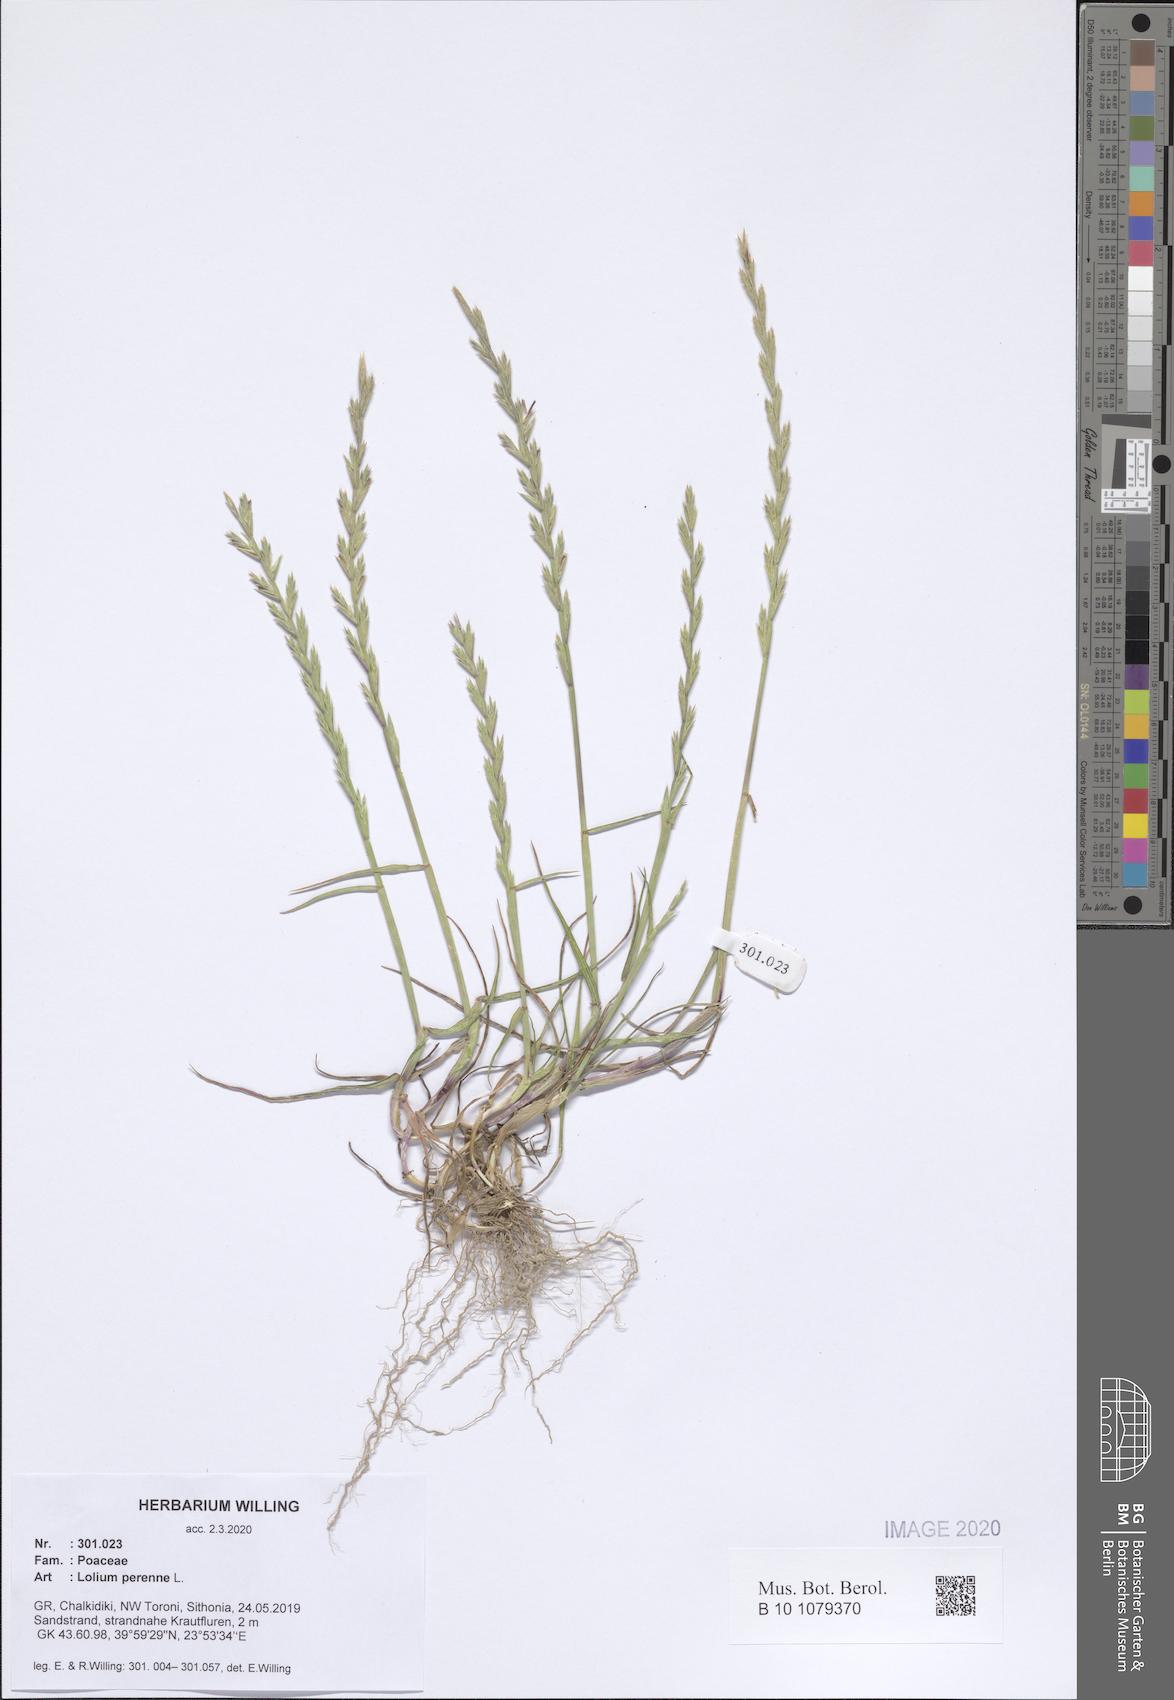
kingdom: Plantae
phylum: Tracheophyta
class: Liliopsida
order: Poales
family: Poaceae
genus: Lolium
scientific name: Lolium perenne
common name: Perennial ryegrass
